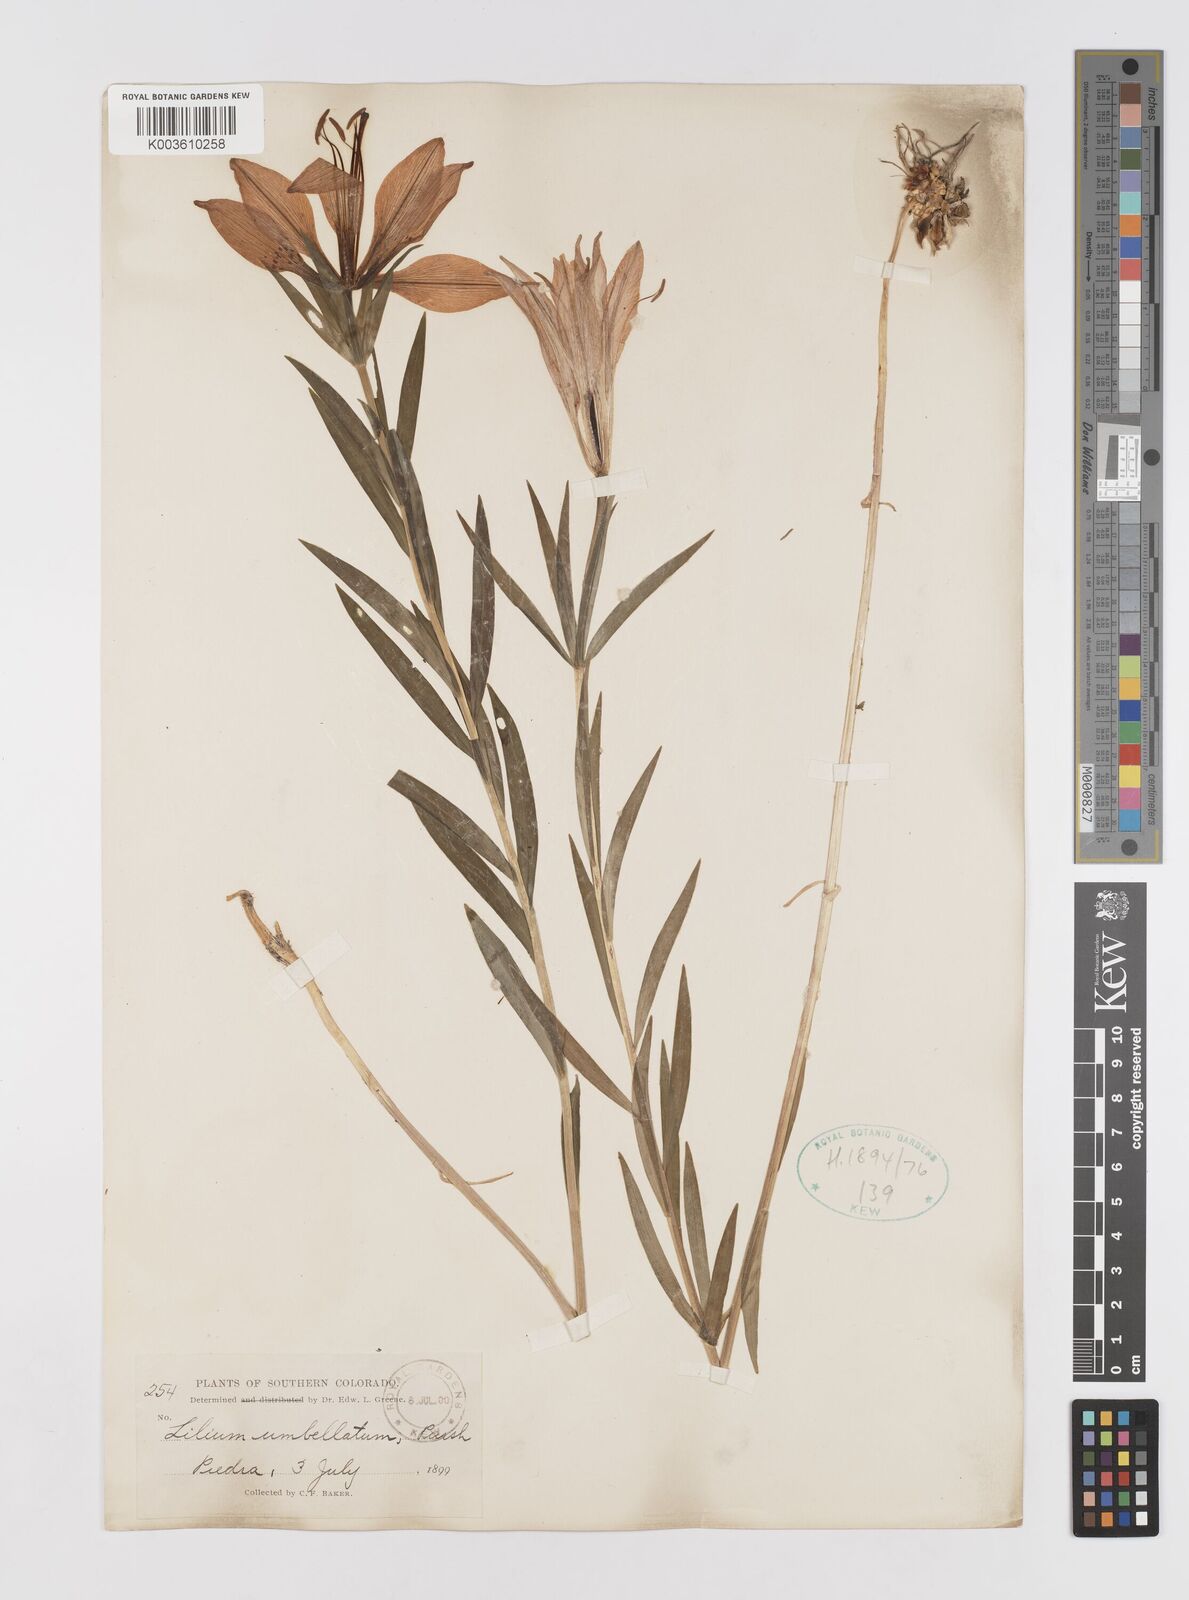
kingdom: Plantae
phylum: Tracheophyta
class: Liliopsida
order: Liliales
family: Liliaceae
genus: Lilium
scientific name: Lilium philadelphicum
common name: Red lily
